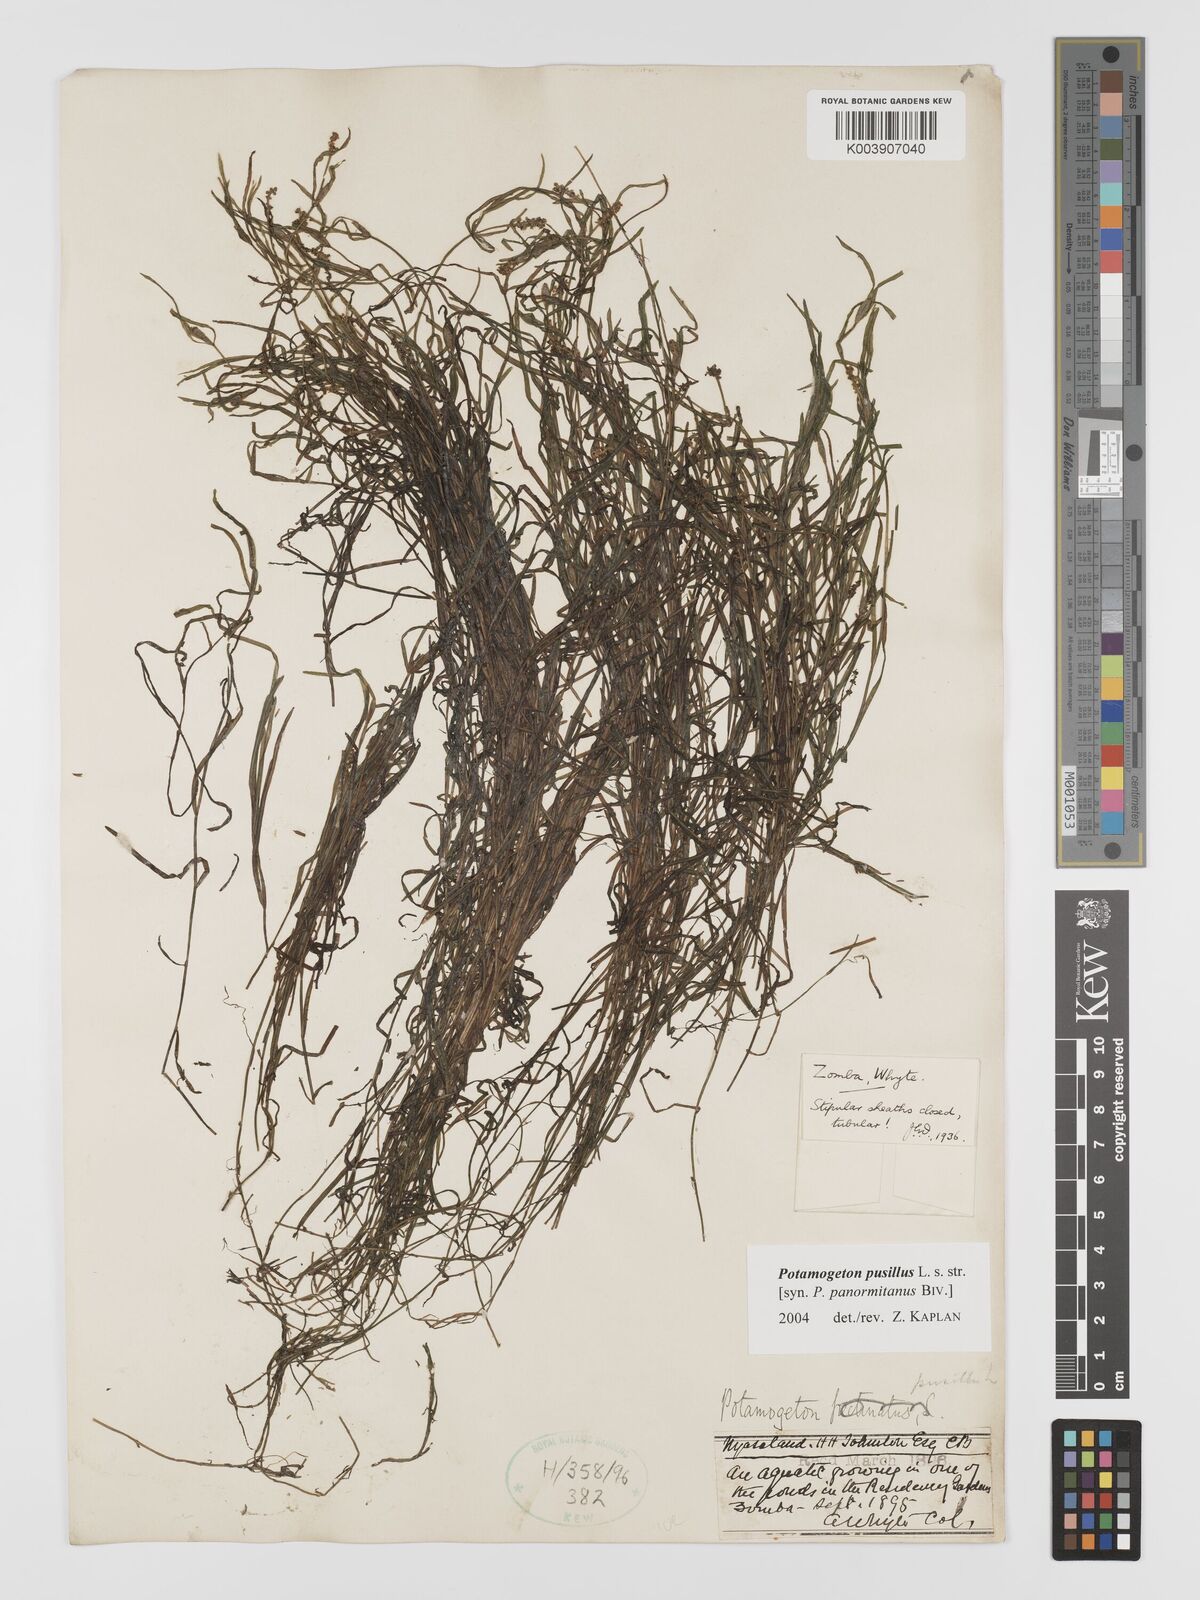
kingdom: Plantae
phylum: Tracheophyta
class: Liliopsida
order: Alismatales
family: Potamogetonaceae
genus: Potamogeton
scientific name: Potamogeton pusillus
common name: Lesser pondweed
